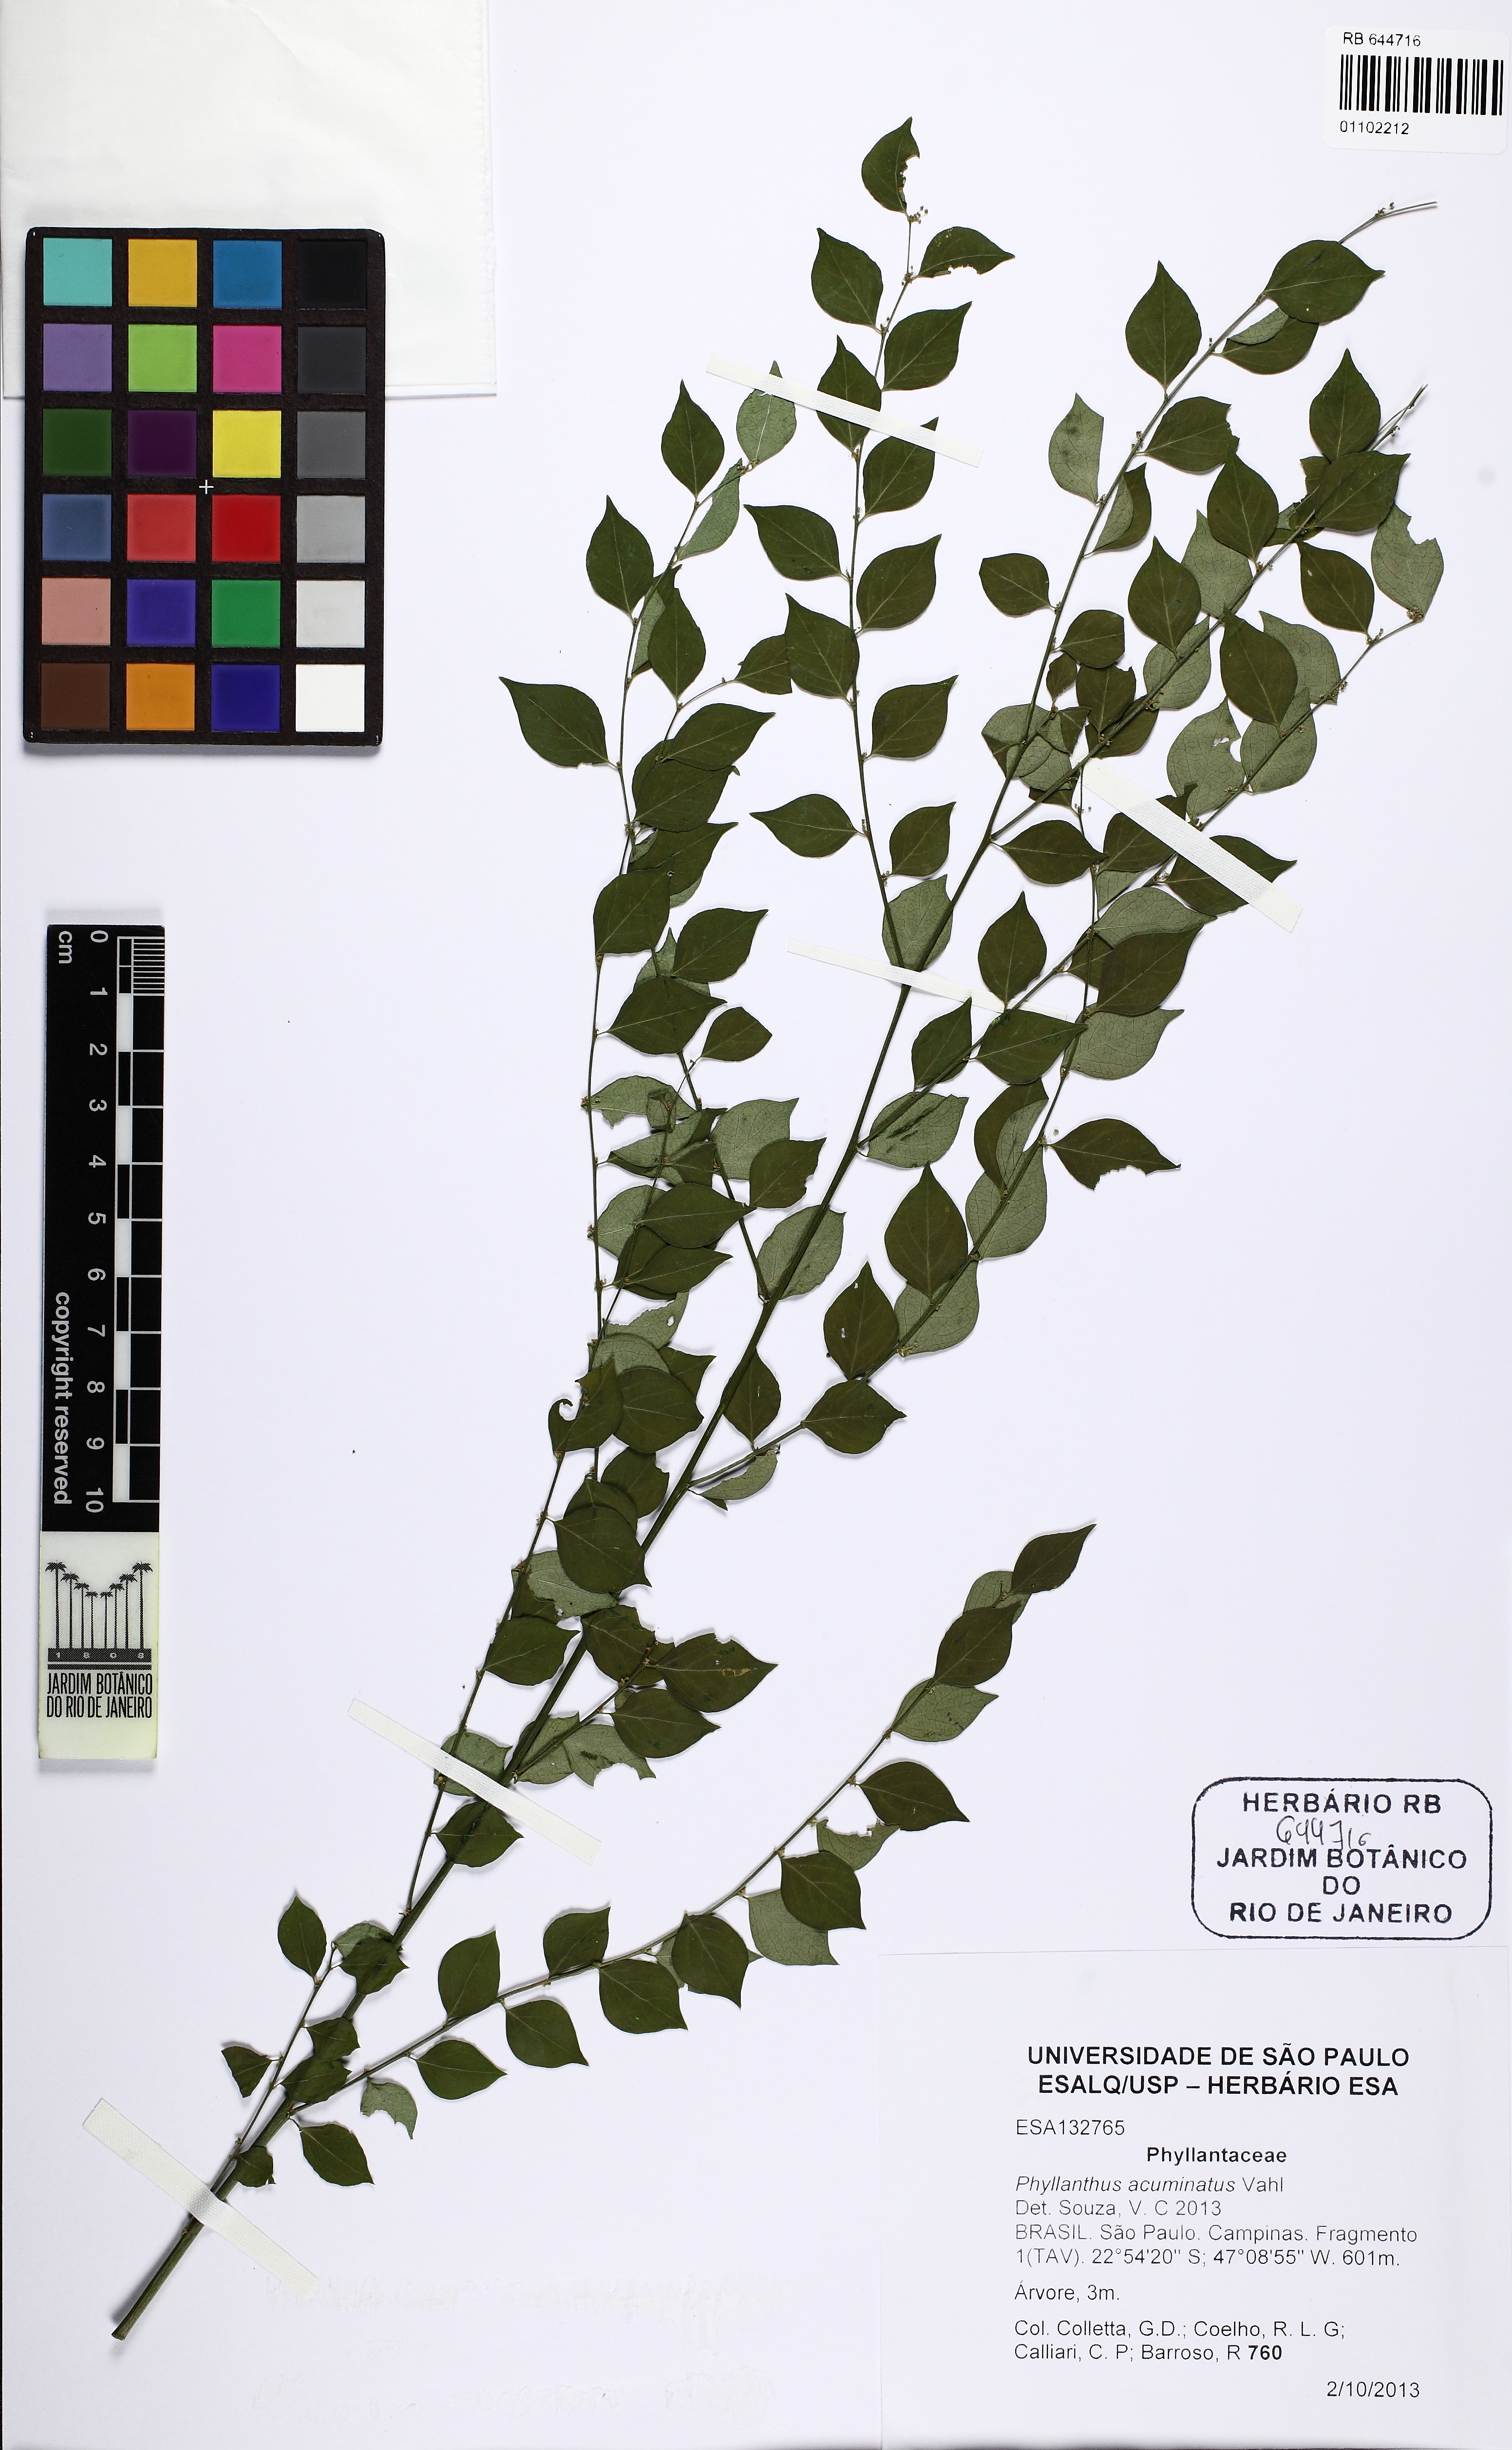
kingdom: Plantae
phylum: Tracheophyta
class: Magnoliopsida
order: Malpighiales
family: Phyllanthaceae
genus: Phyllanthus
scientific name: Phyllanthus acuminatus
